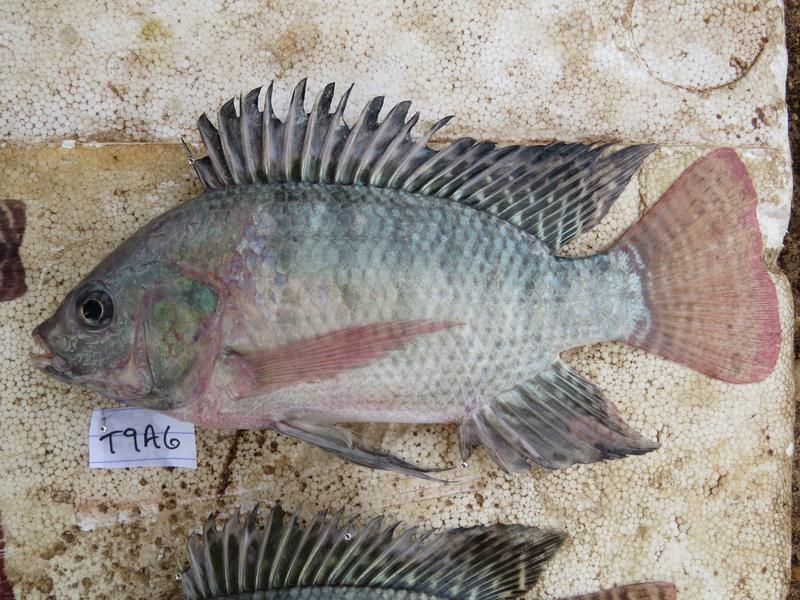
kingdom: Animalia
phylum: Chordata
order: Perciformes
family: Cichlidae
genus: Oreochromis
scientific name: Oreochromis
